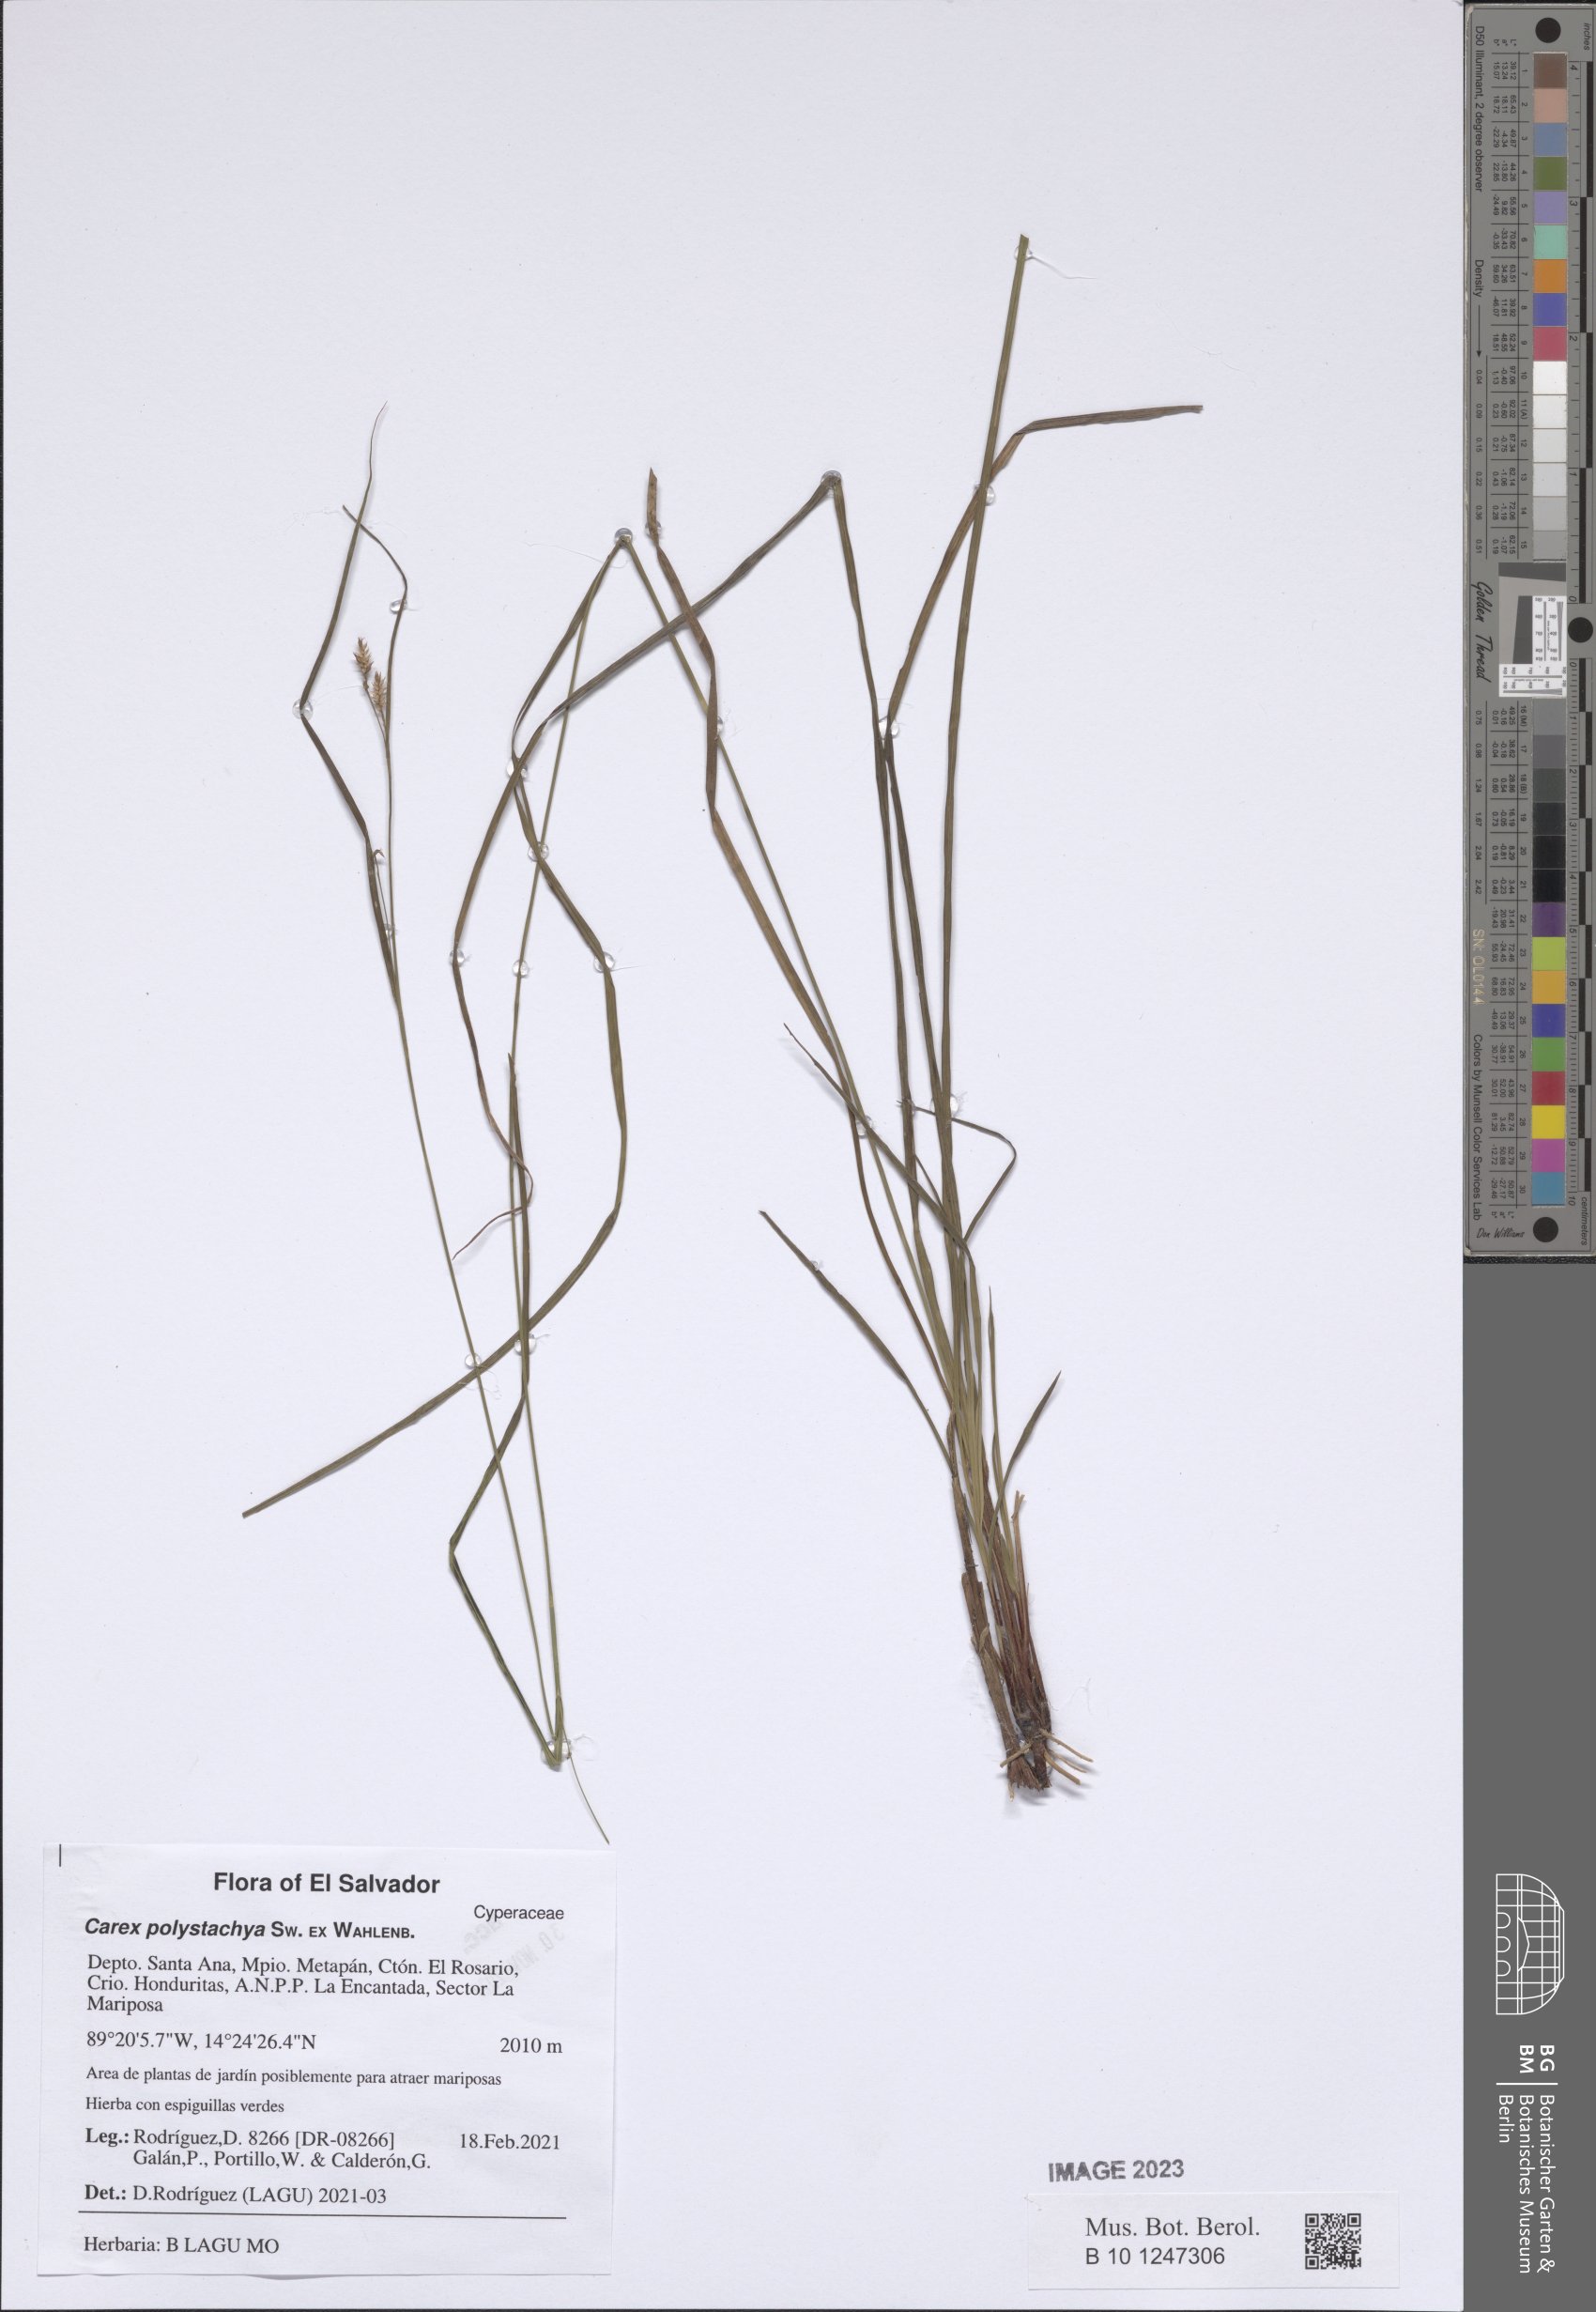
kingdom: Plantae
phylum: Tracheophyta
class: Liliopsida
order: Poales
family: Cyperaceae
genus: Carex
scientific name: Carex polystachya
